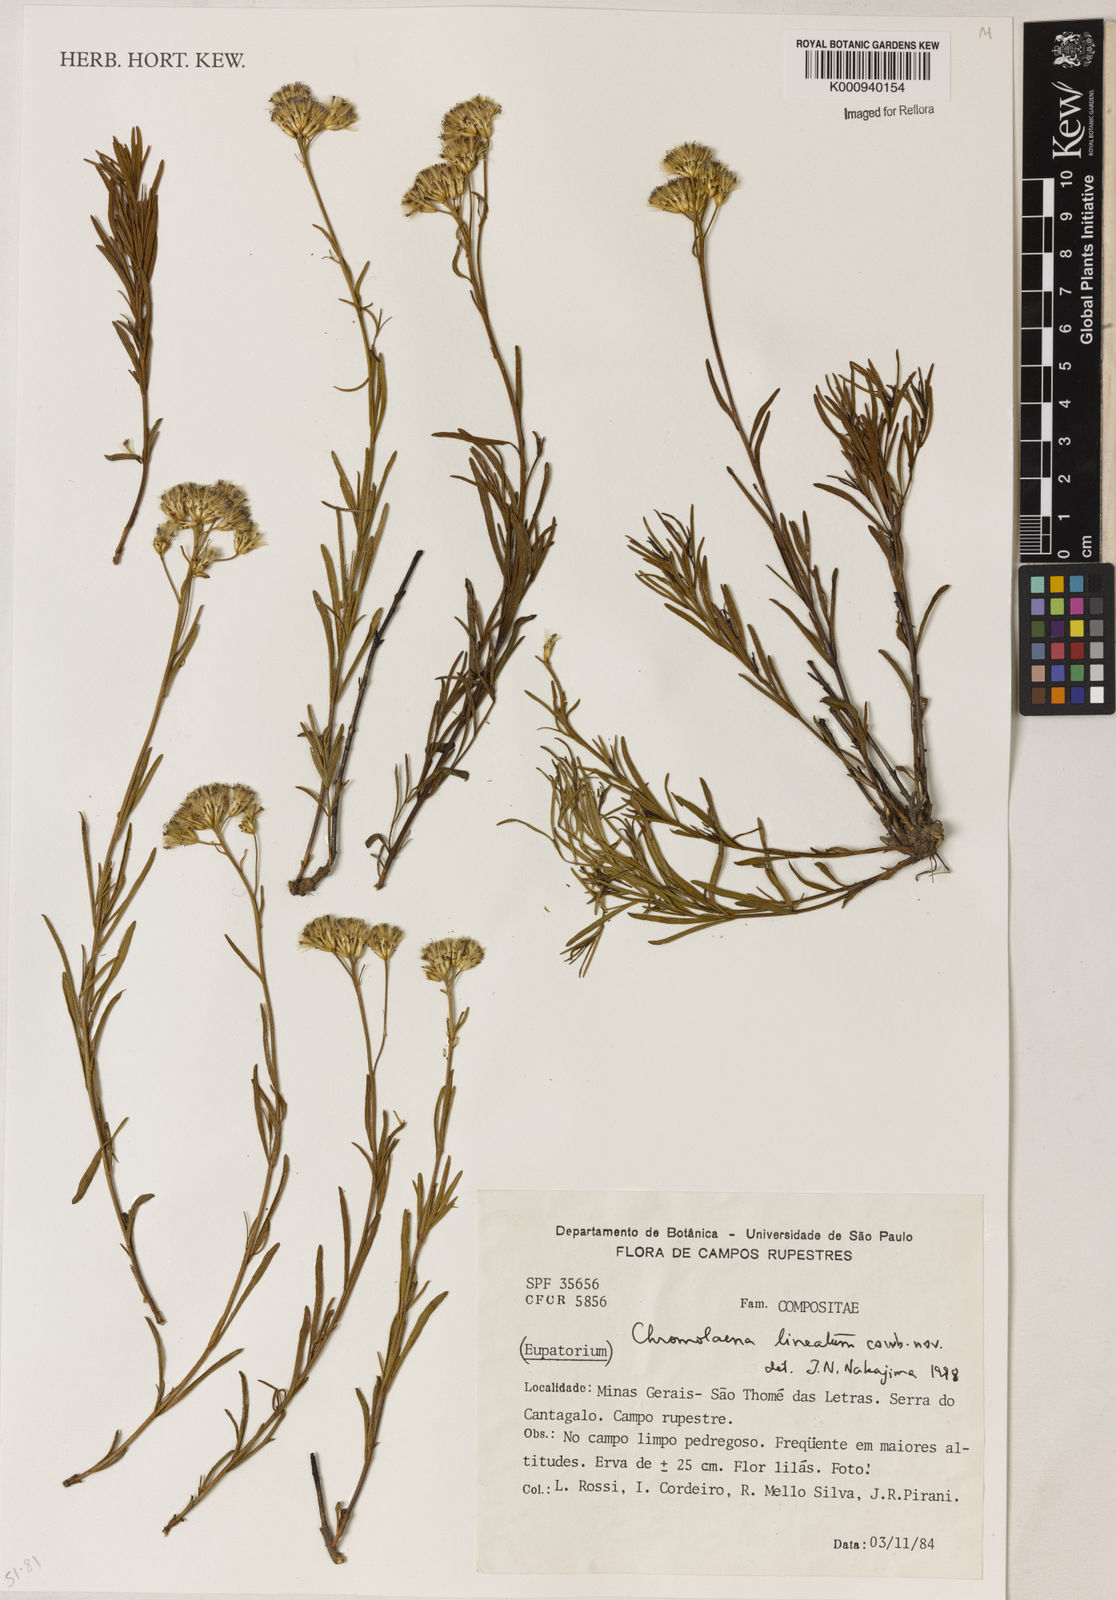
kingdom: Plantae
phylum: Tracheophyta
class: Magnoliopsida
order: Asterales
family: Asteraceae
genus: Chromolaena
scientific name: Chromolaena
